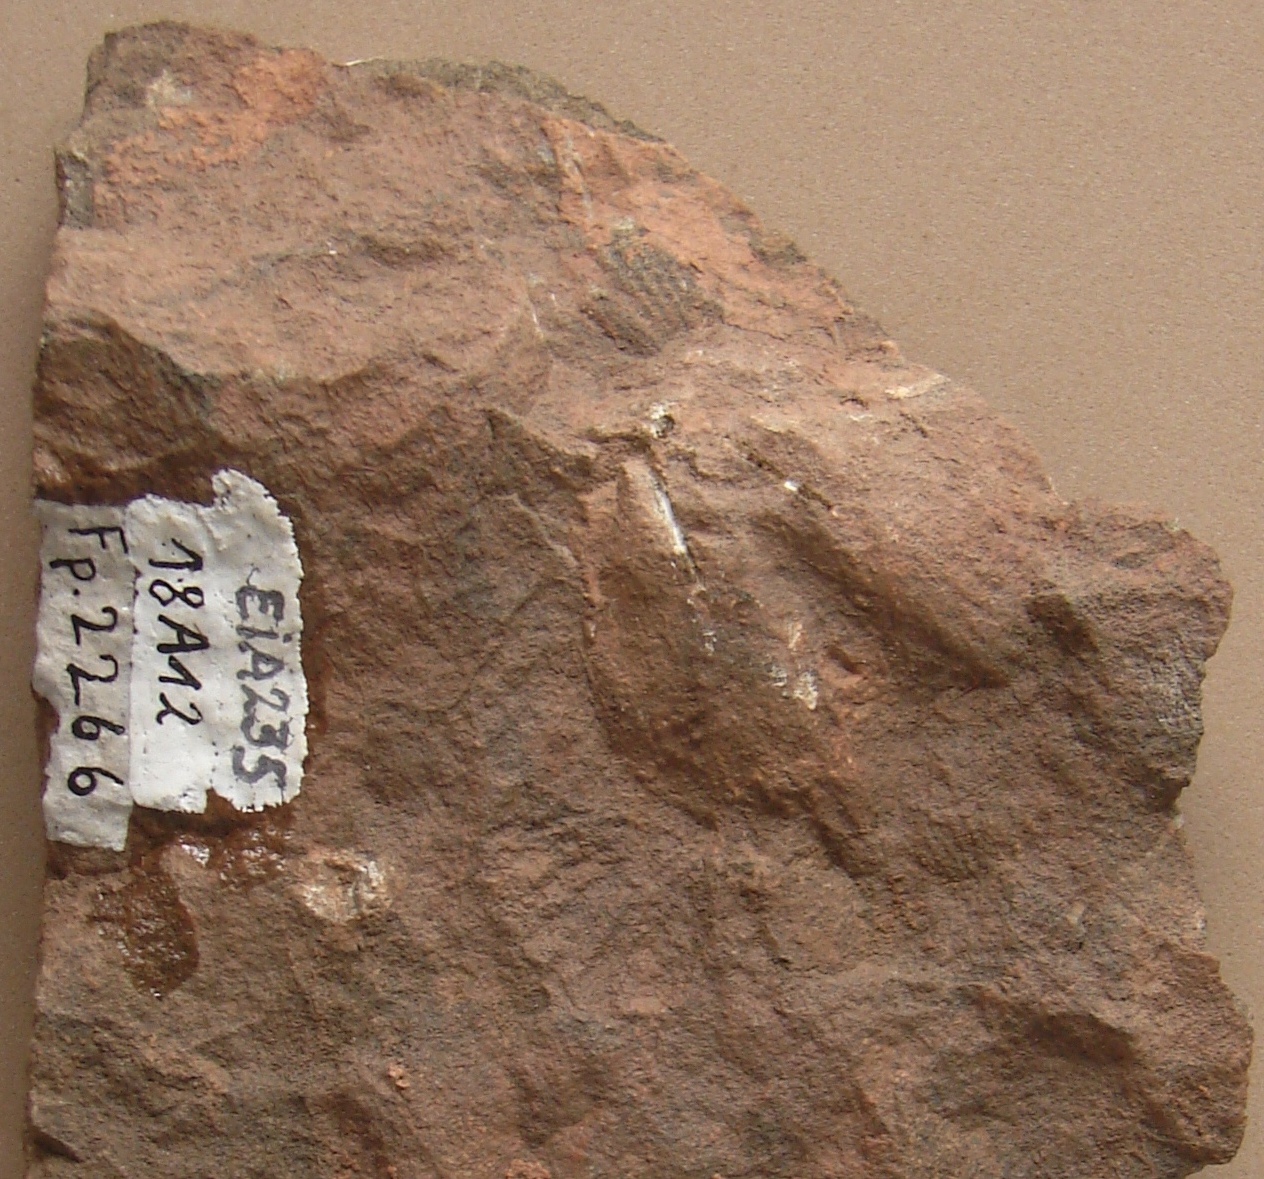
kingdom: Animalia
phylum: Brachiopoda
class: Rhynchonellata
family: Delthyrididae
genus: Brachyspirifer
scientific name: Brachyspirifer
